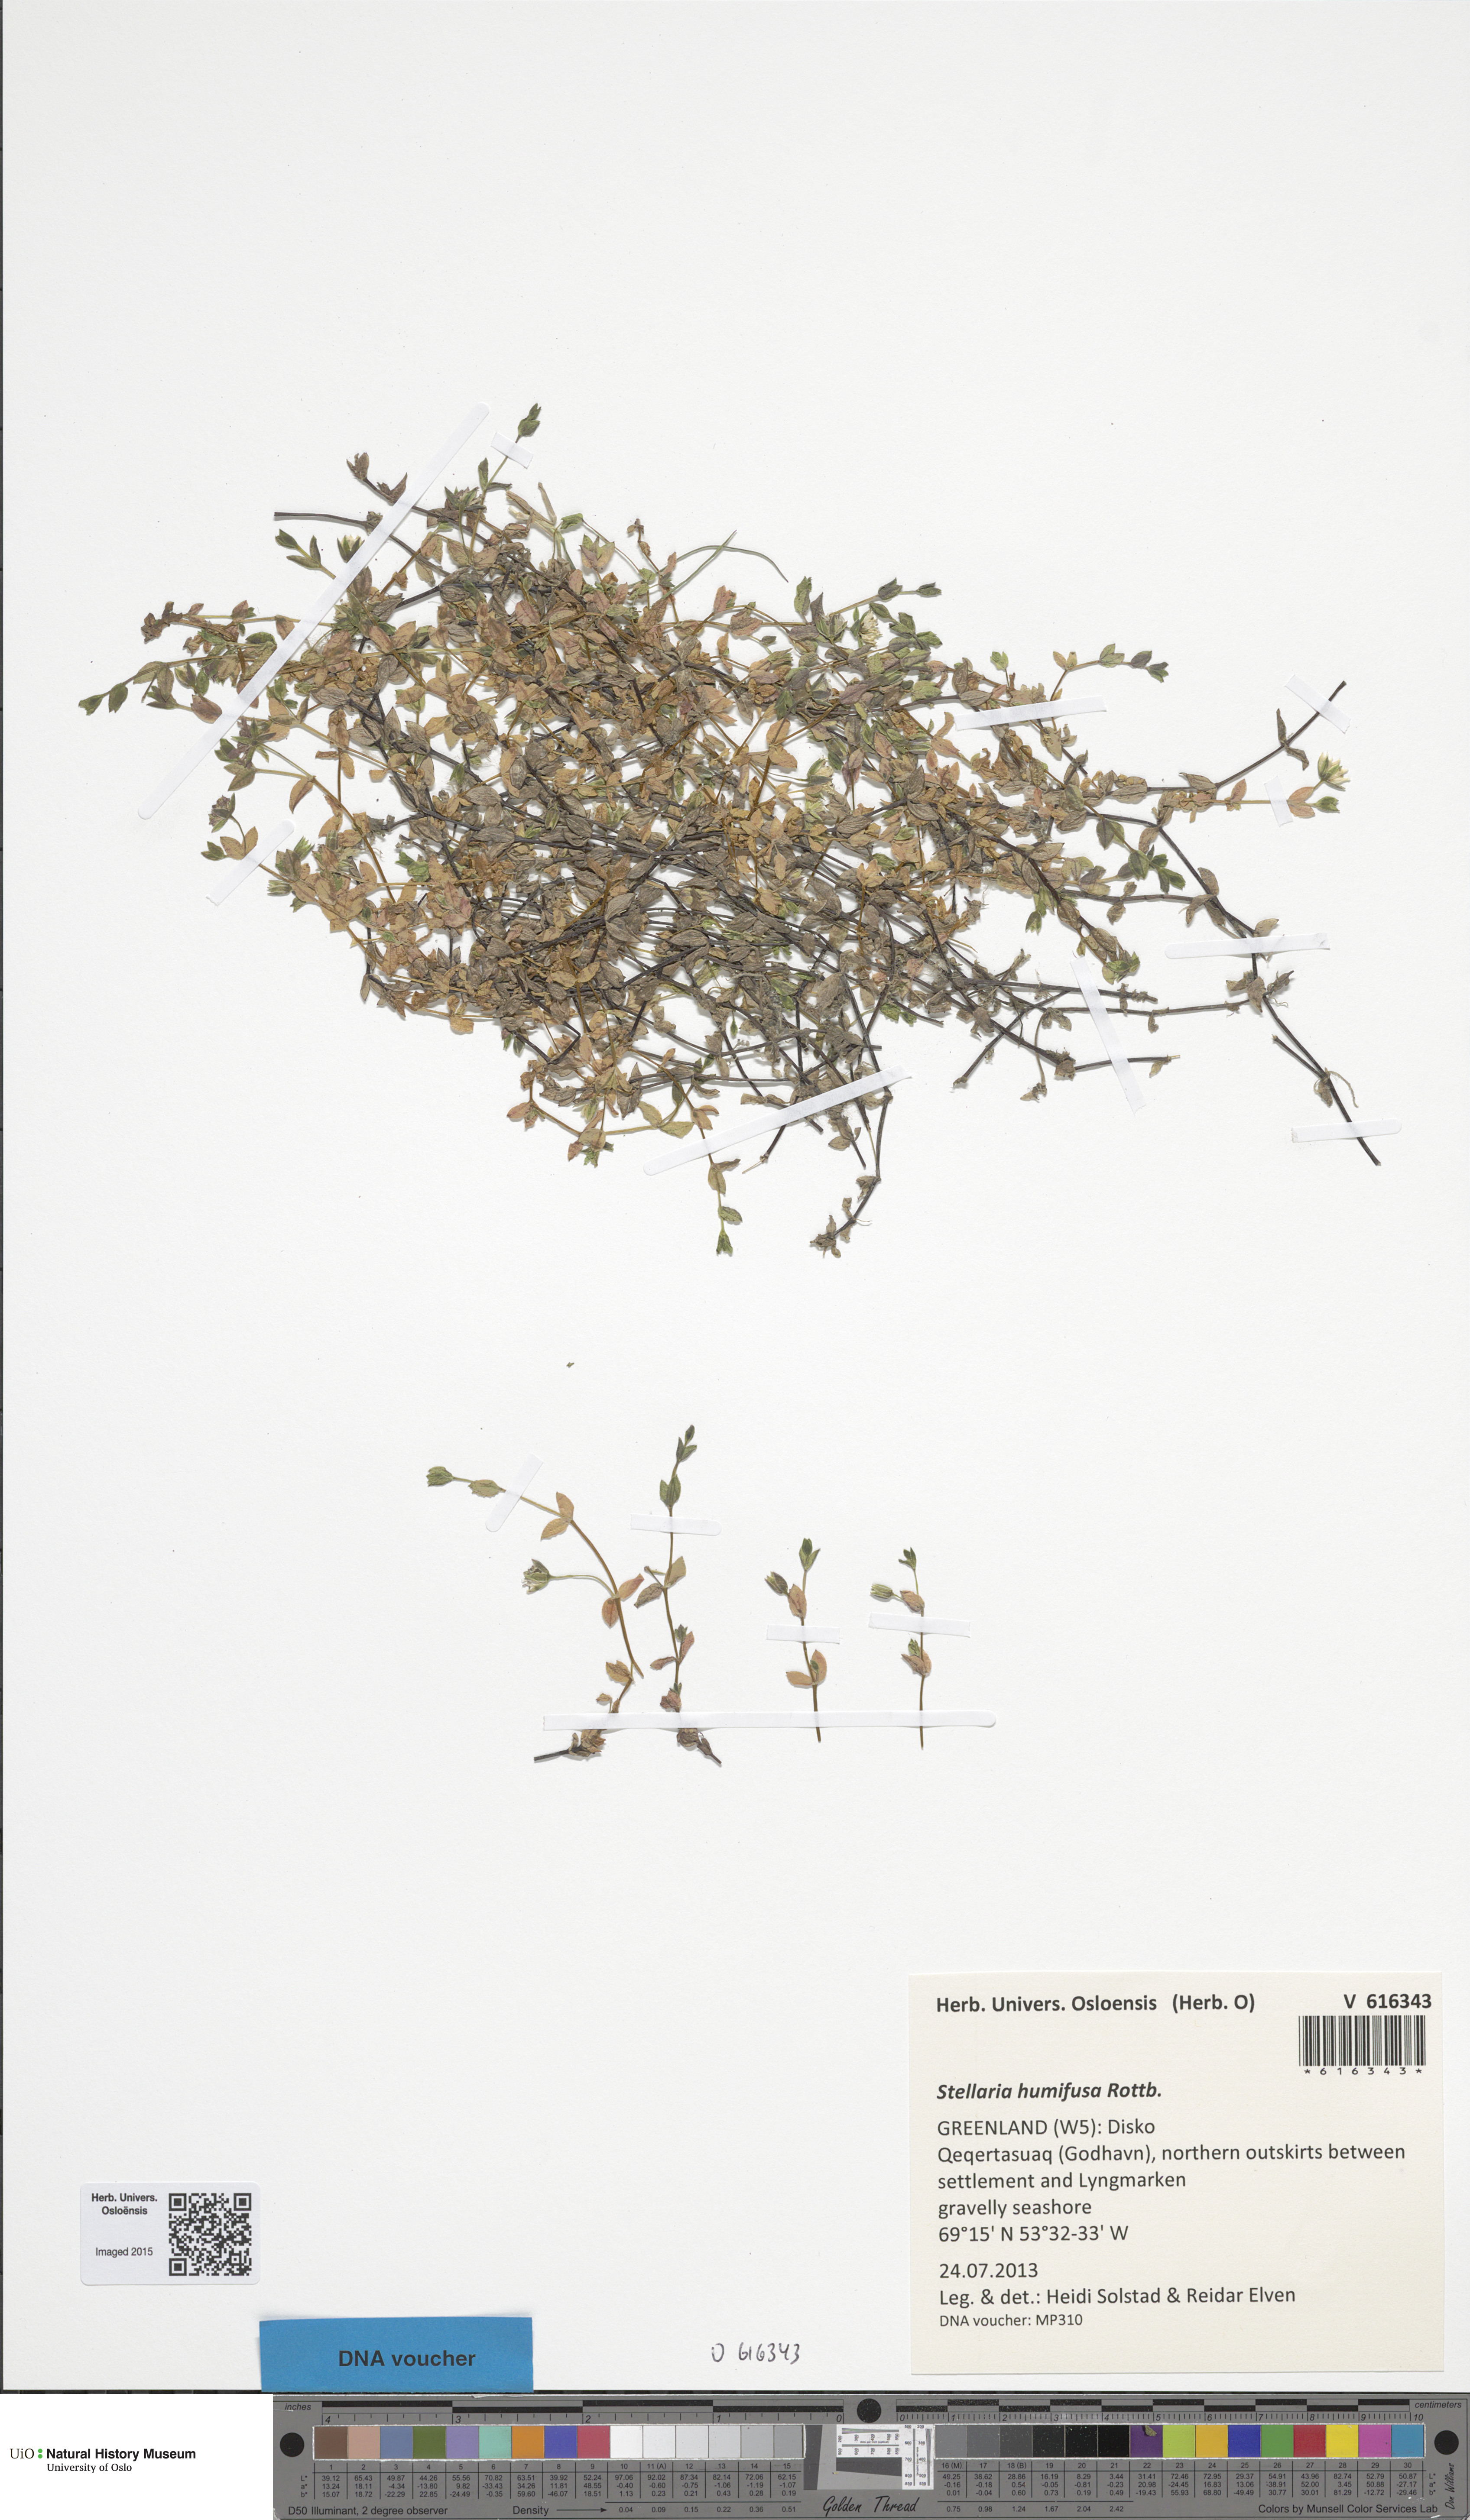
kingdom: Plantae
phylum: Tracheophyta
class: Magnoliopsida
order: Caryophyllales
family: Caryophyllaceae
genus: Stellaria
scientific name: Stellaria humifusa
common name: Creeping starwort
